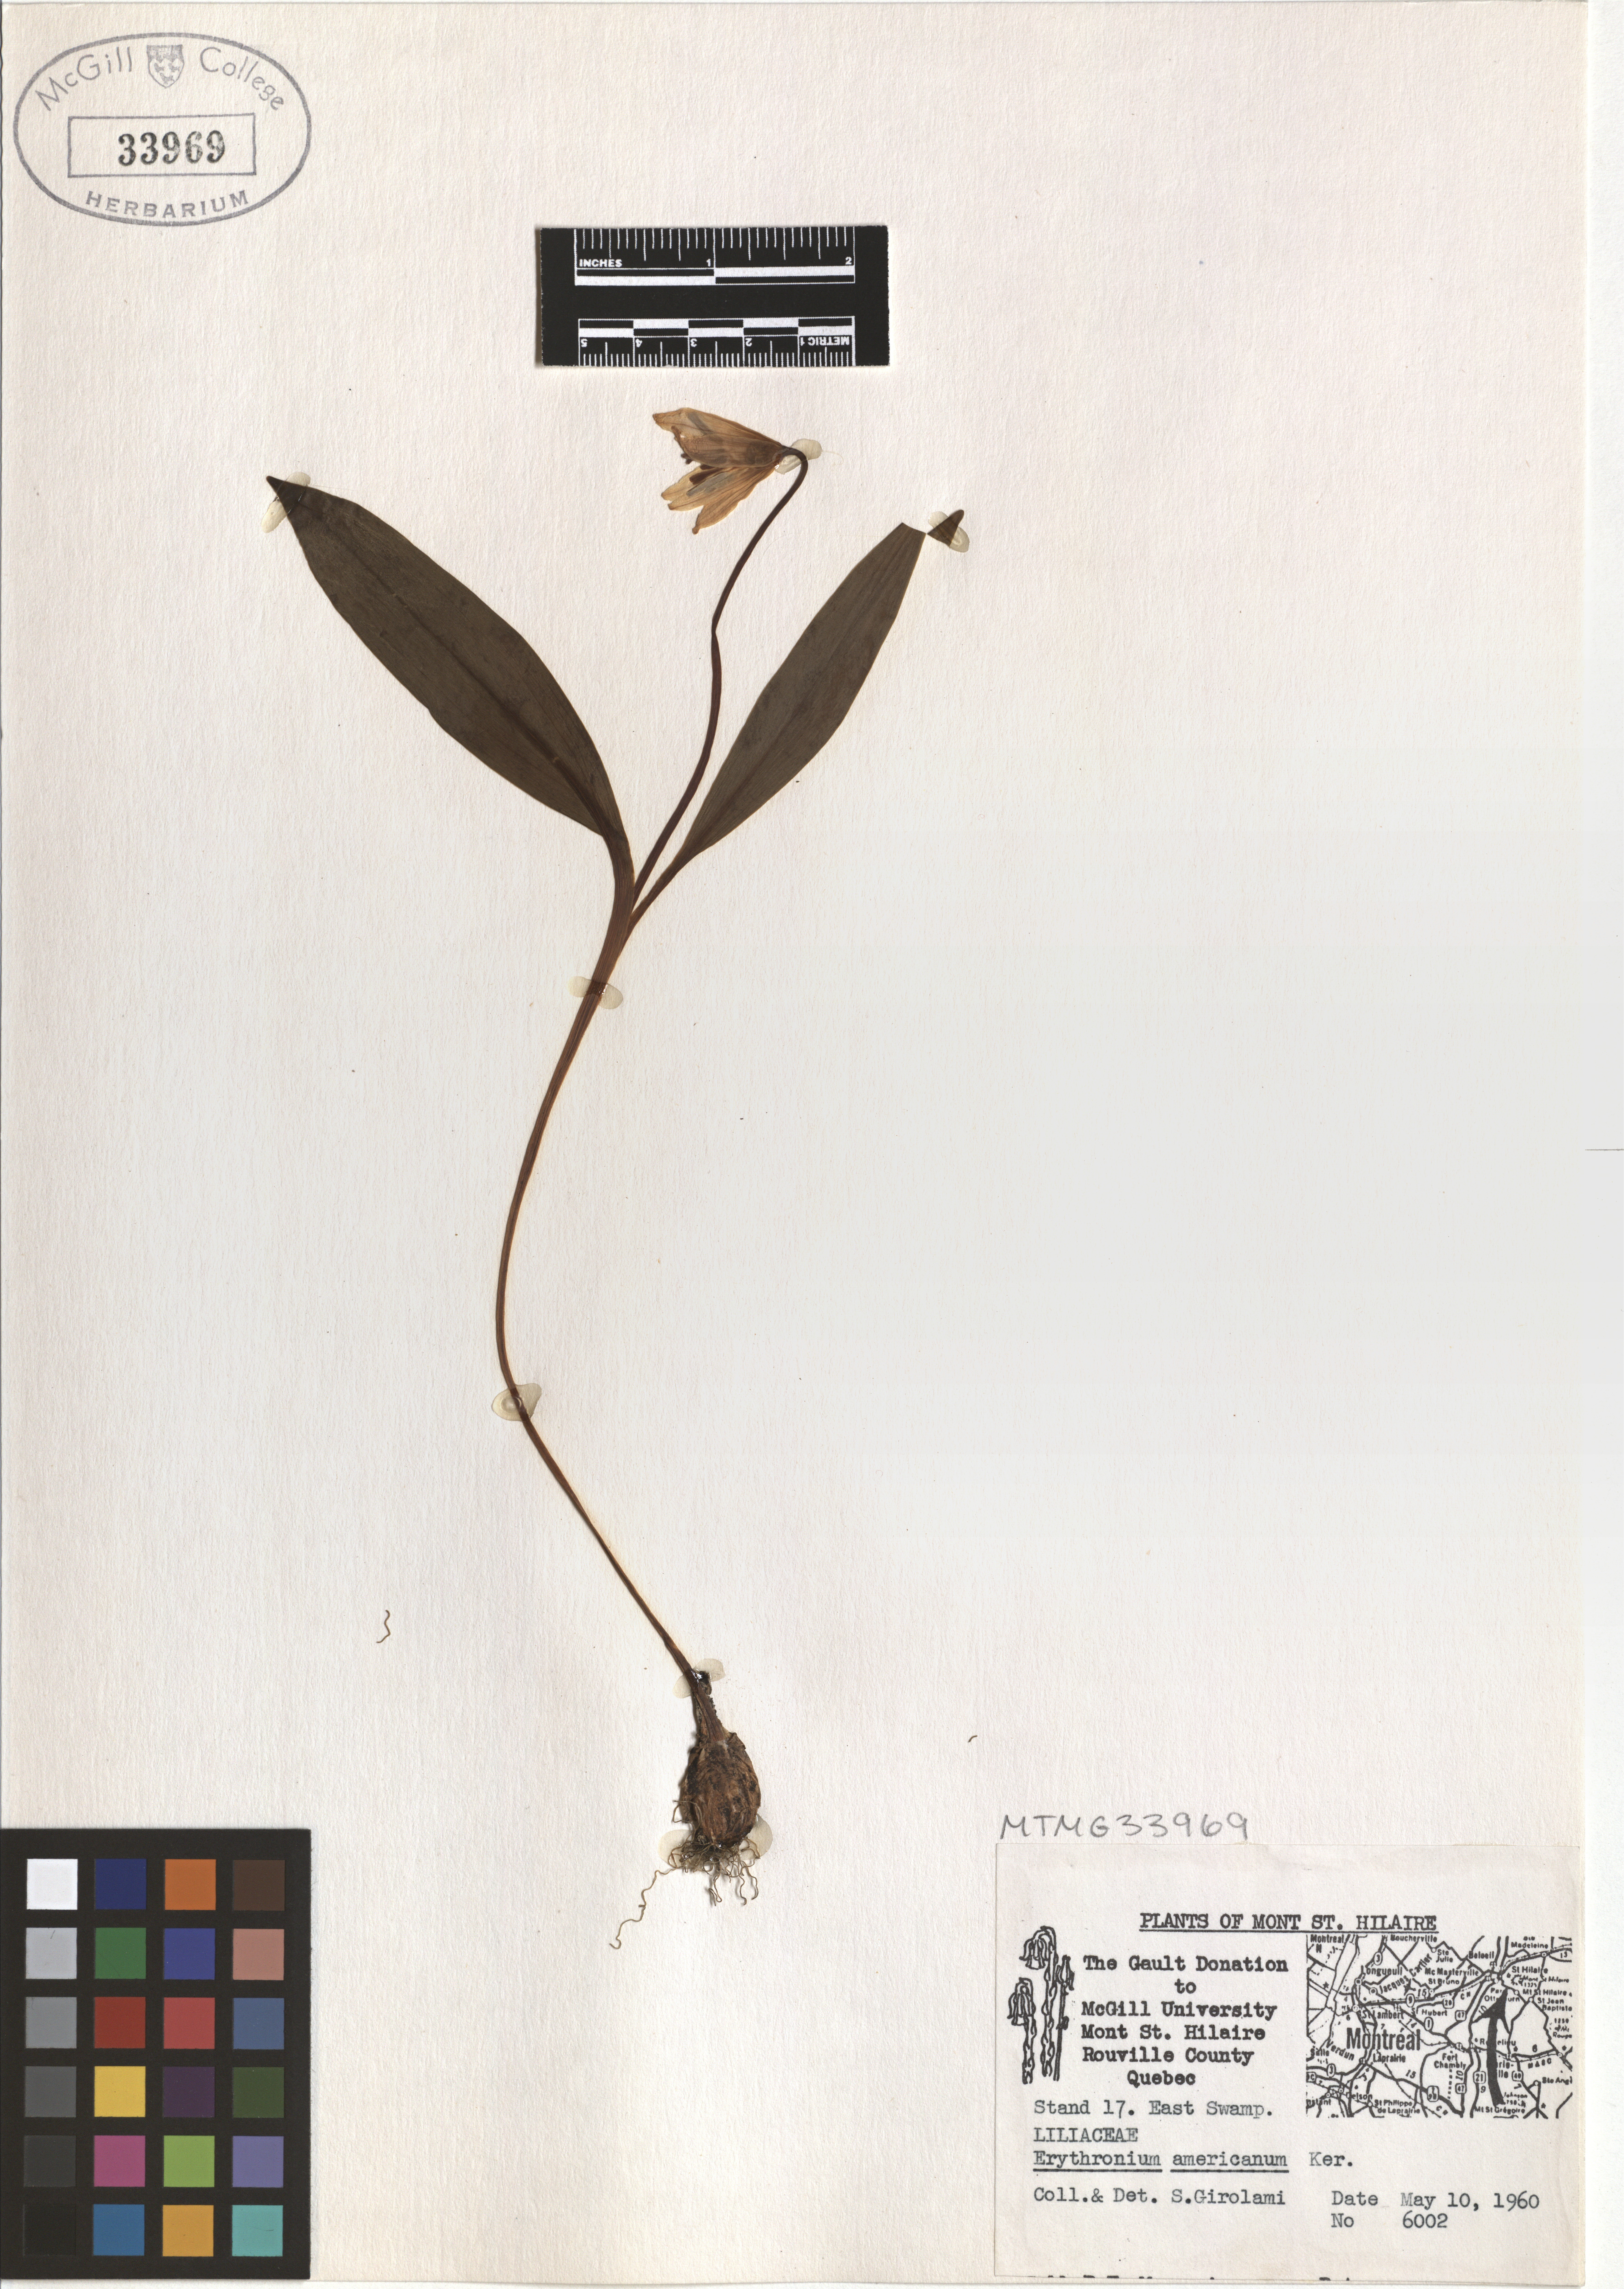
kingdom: Plantae
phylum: Tracheophyta
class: Liliopsida
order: Liliales
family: Liliaceae
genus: Erythronium
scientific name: Erythronium americanum
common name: Yellow adder's-tongue
